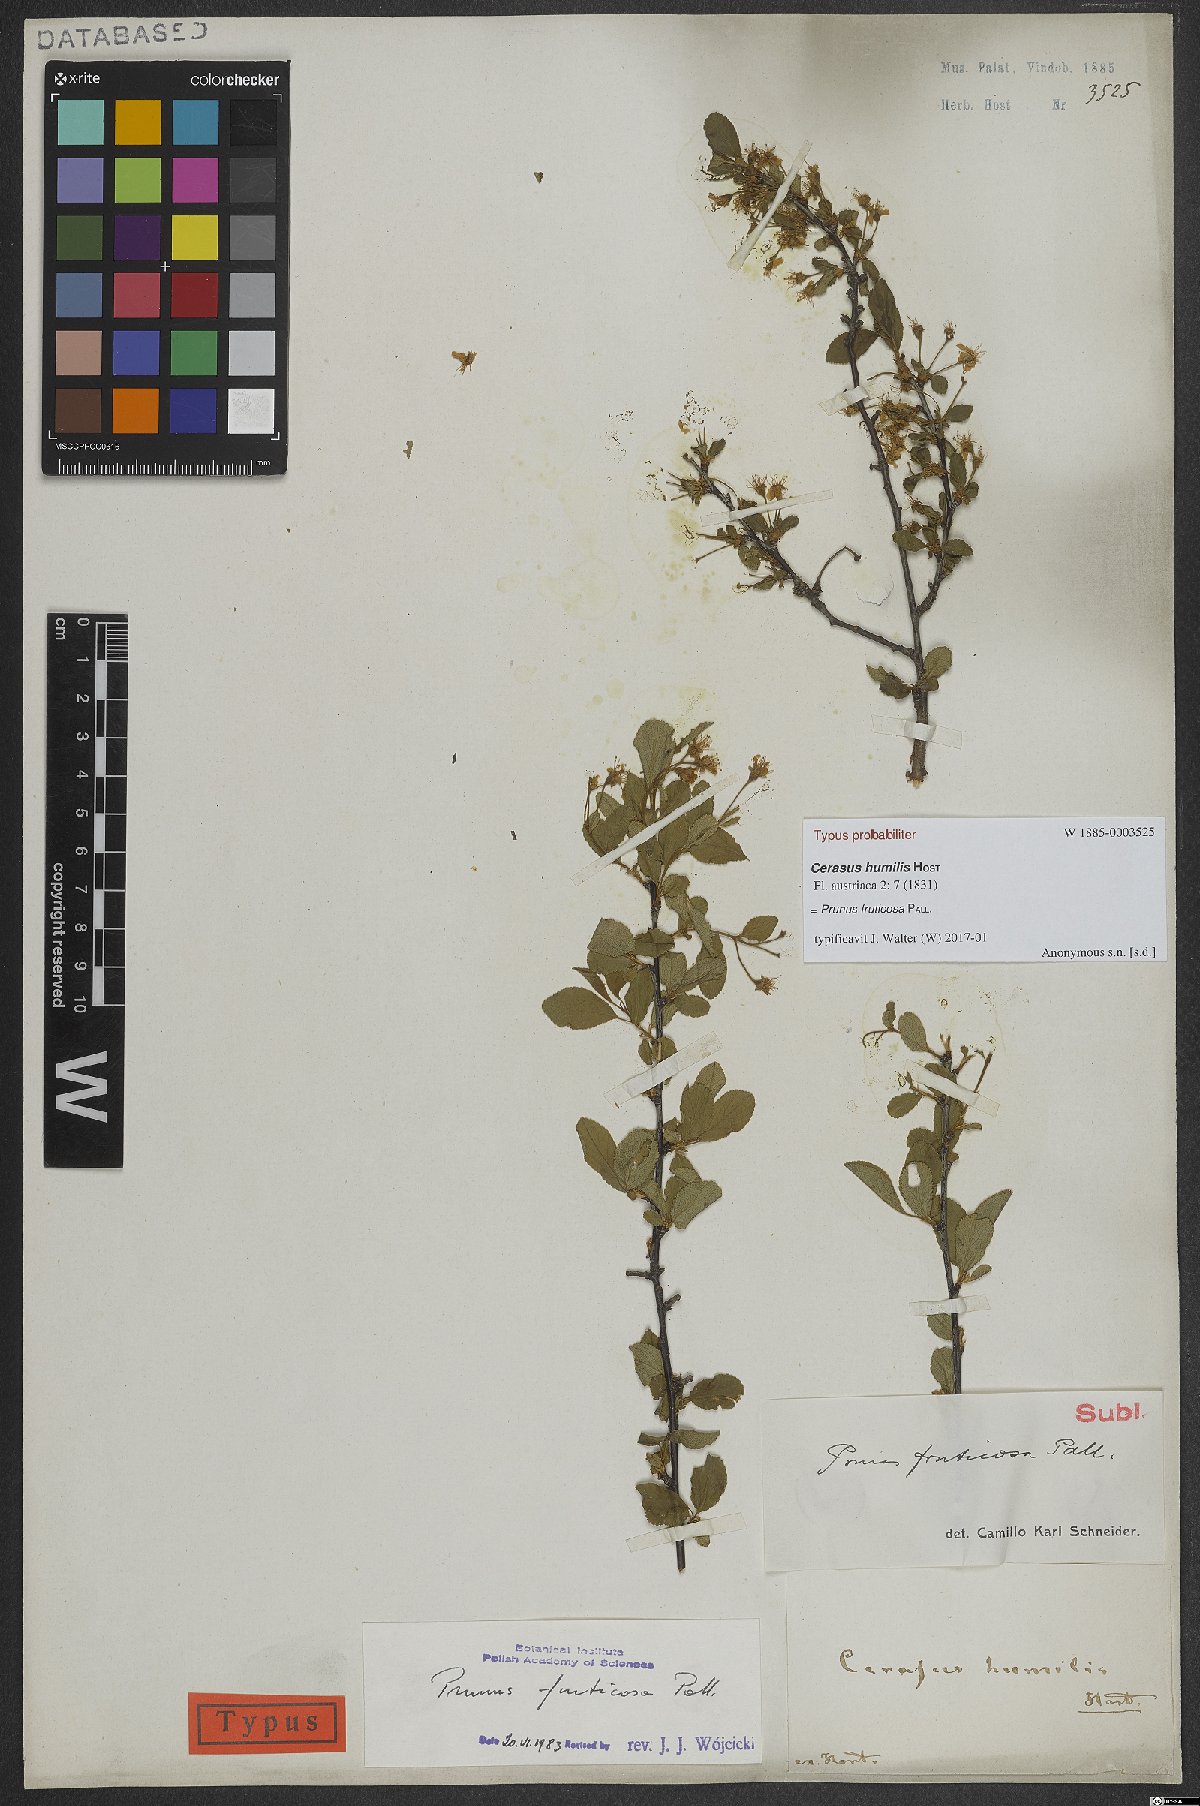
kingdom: Plantae
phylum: Tracheophyta
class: Magnoliopsida
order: Rosales
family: Rosaceae
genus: Prunus
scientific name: Prunus fruticosa
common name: European dwarf cherry
